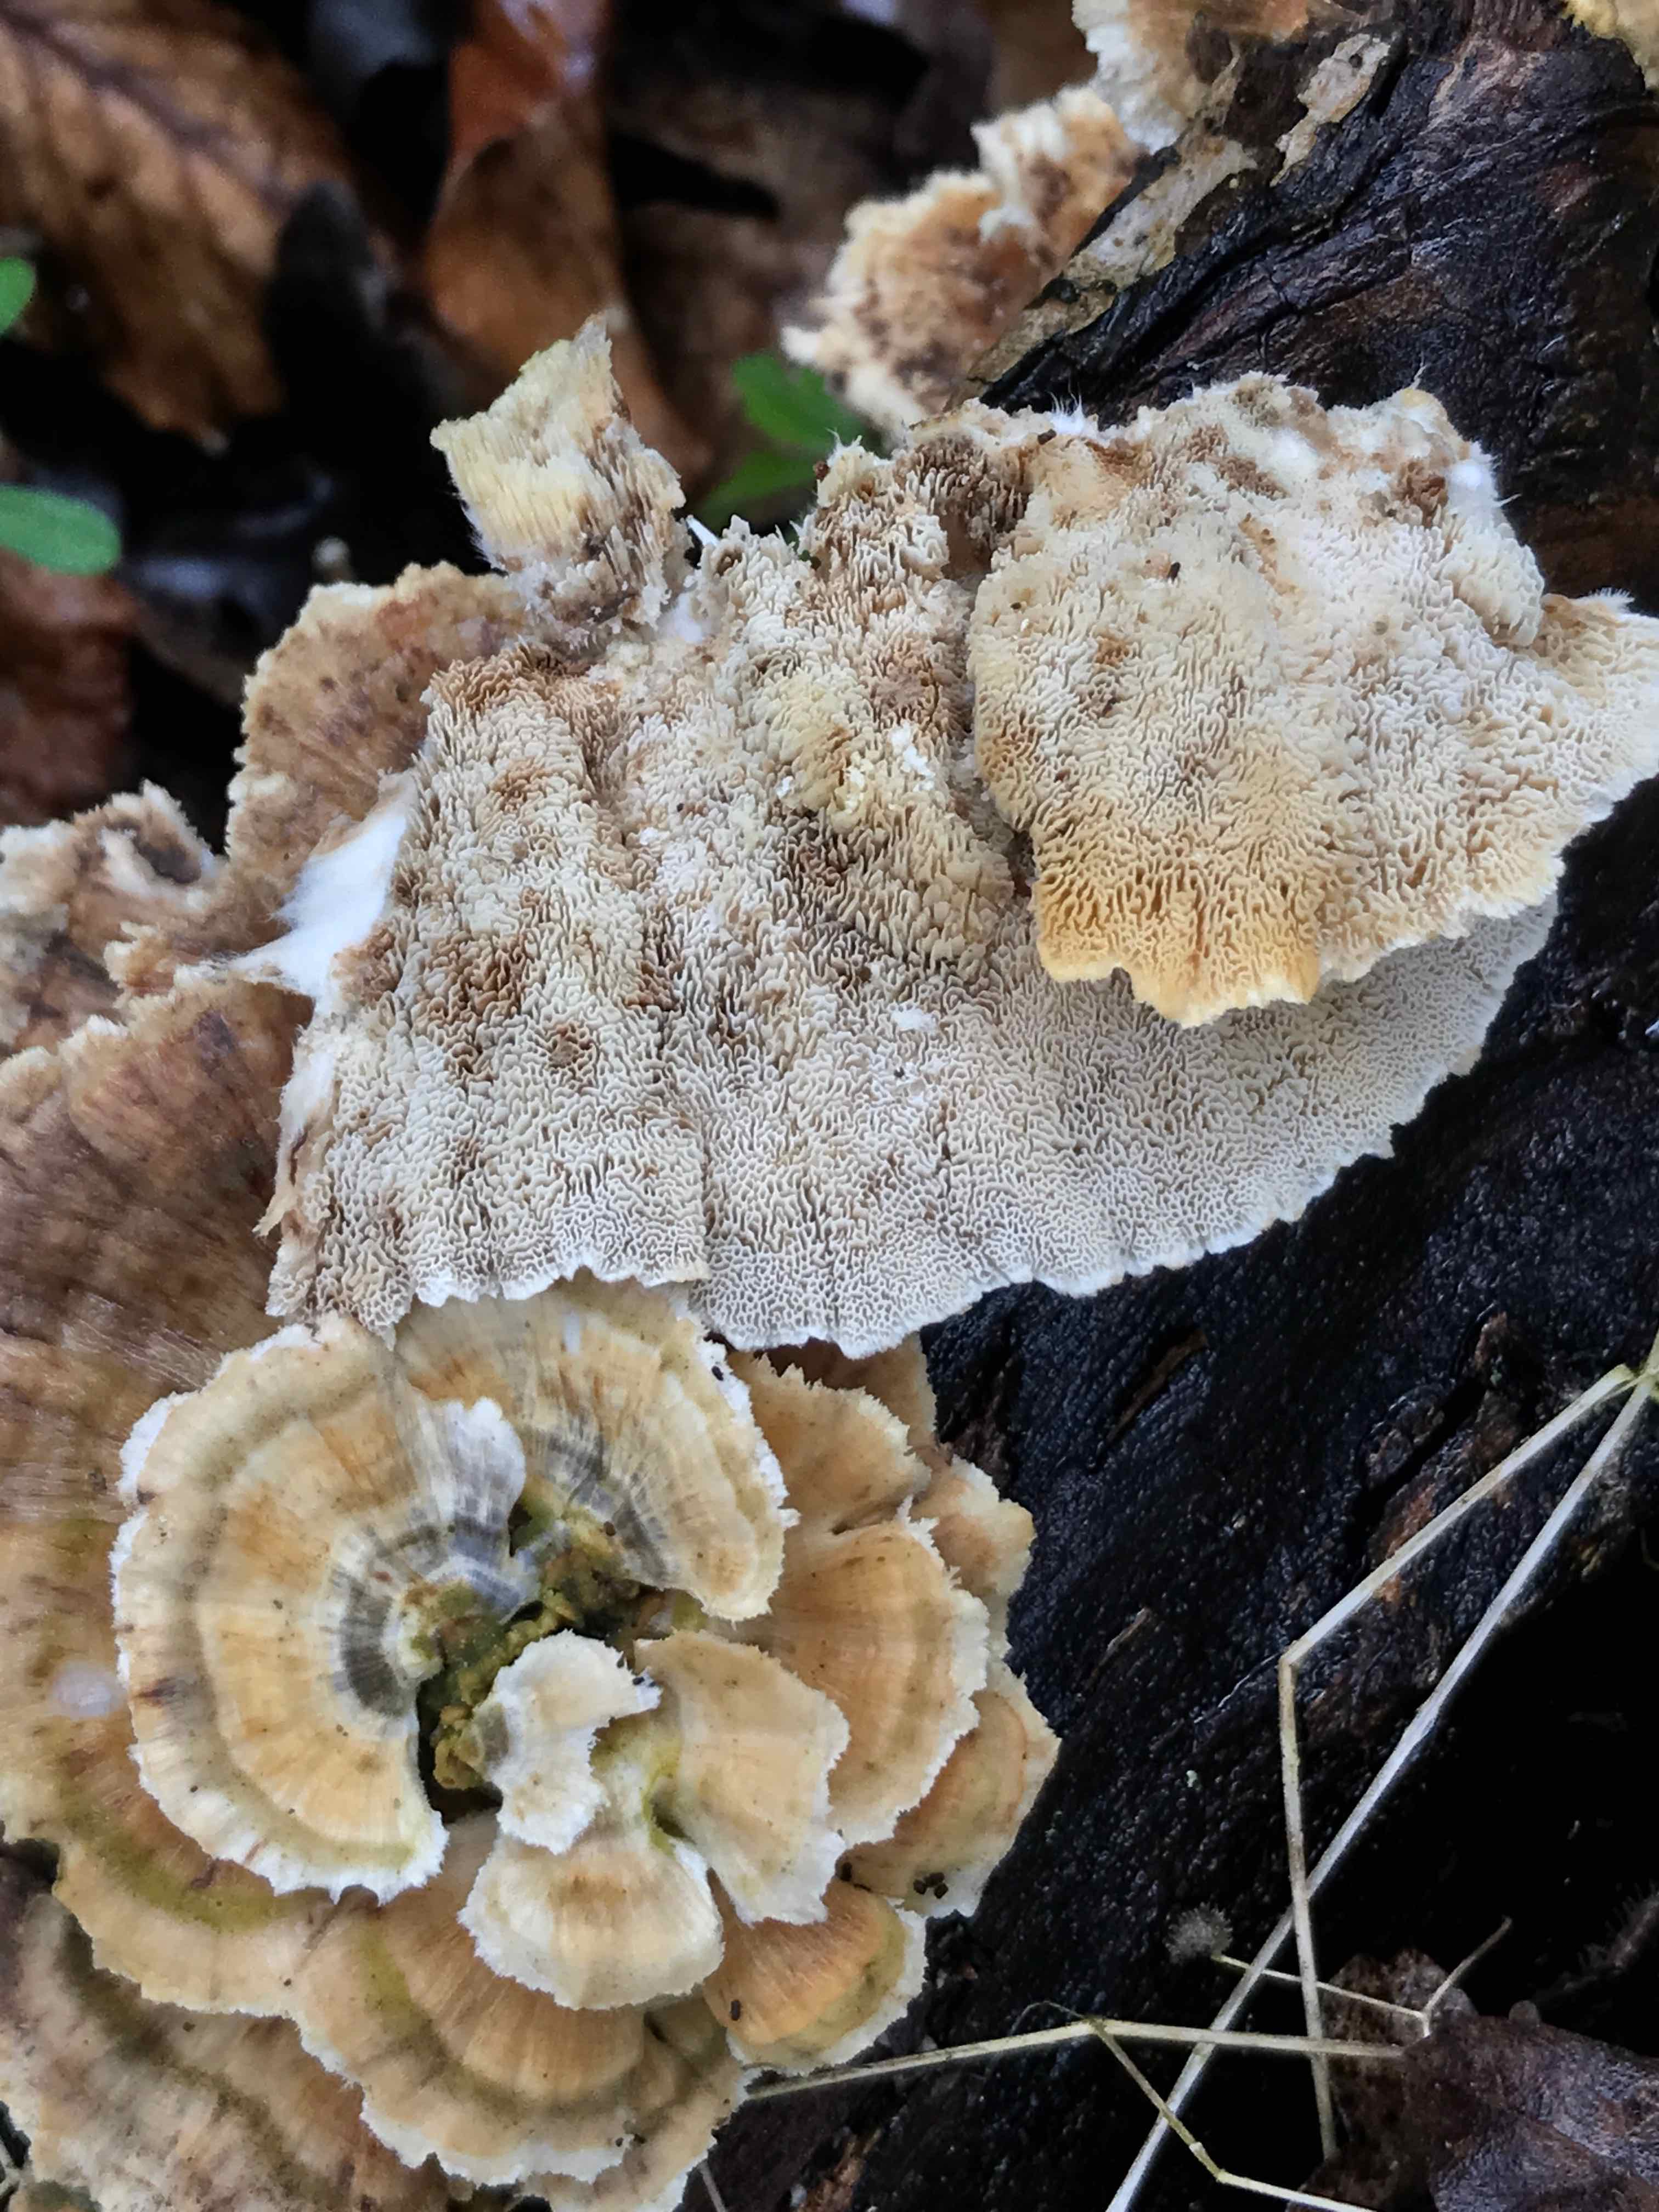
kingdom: Fungi
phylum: Basidiomycota
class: Agaricomycetes
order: Polyporales
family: Polyporaceae
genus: Trametes
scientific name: Trametes ochracea
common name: bæltet læderporesvamp
